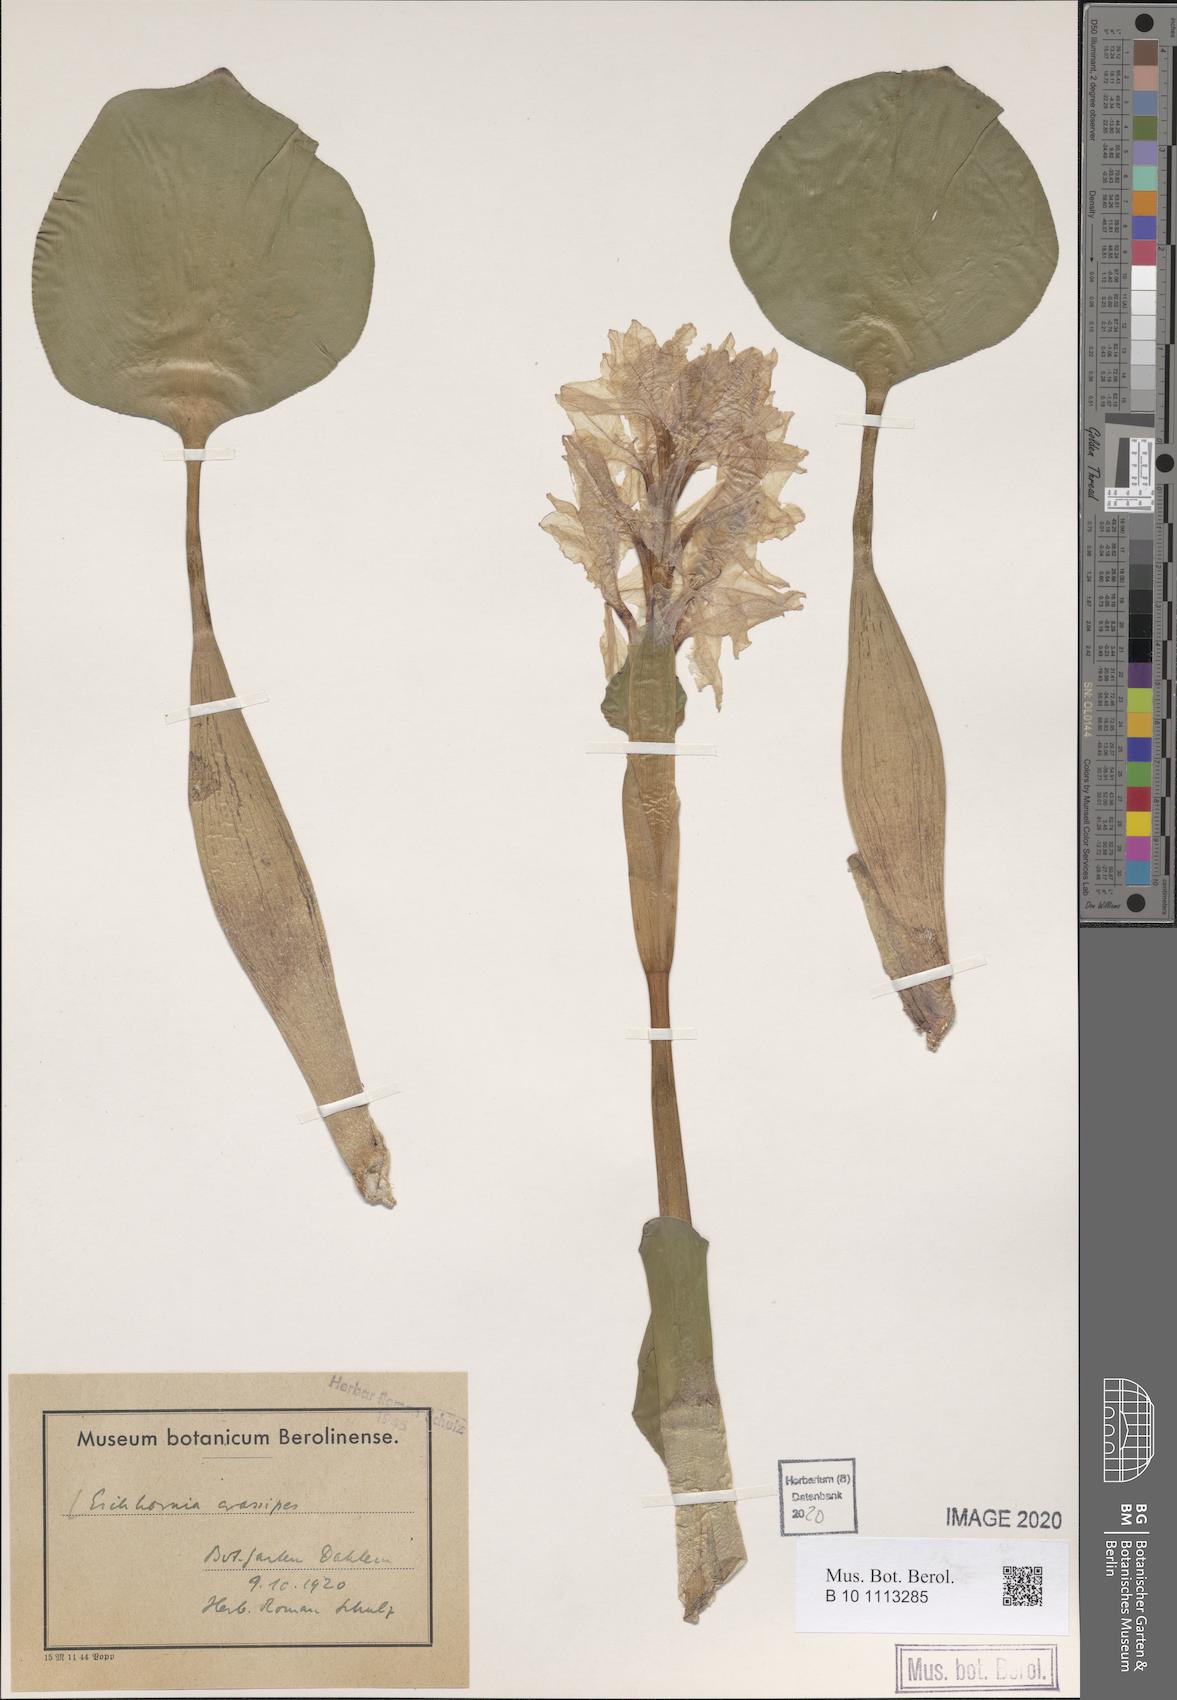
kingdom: Plantae
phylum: Tracheophyta
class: Liliopsida
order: Commelinales
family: Pontederiaceae
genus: Pontederia
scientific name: Pontederia crassipes
